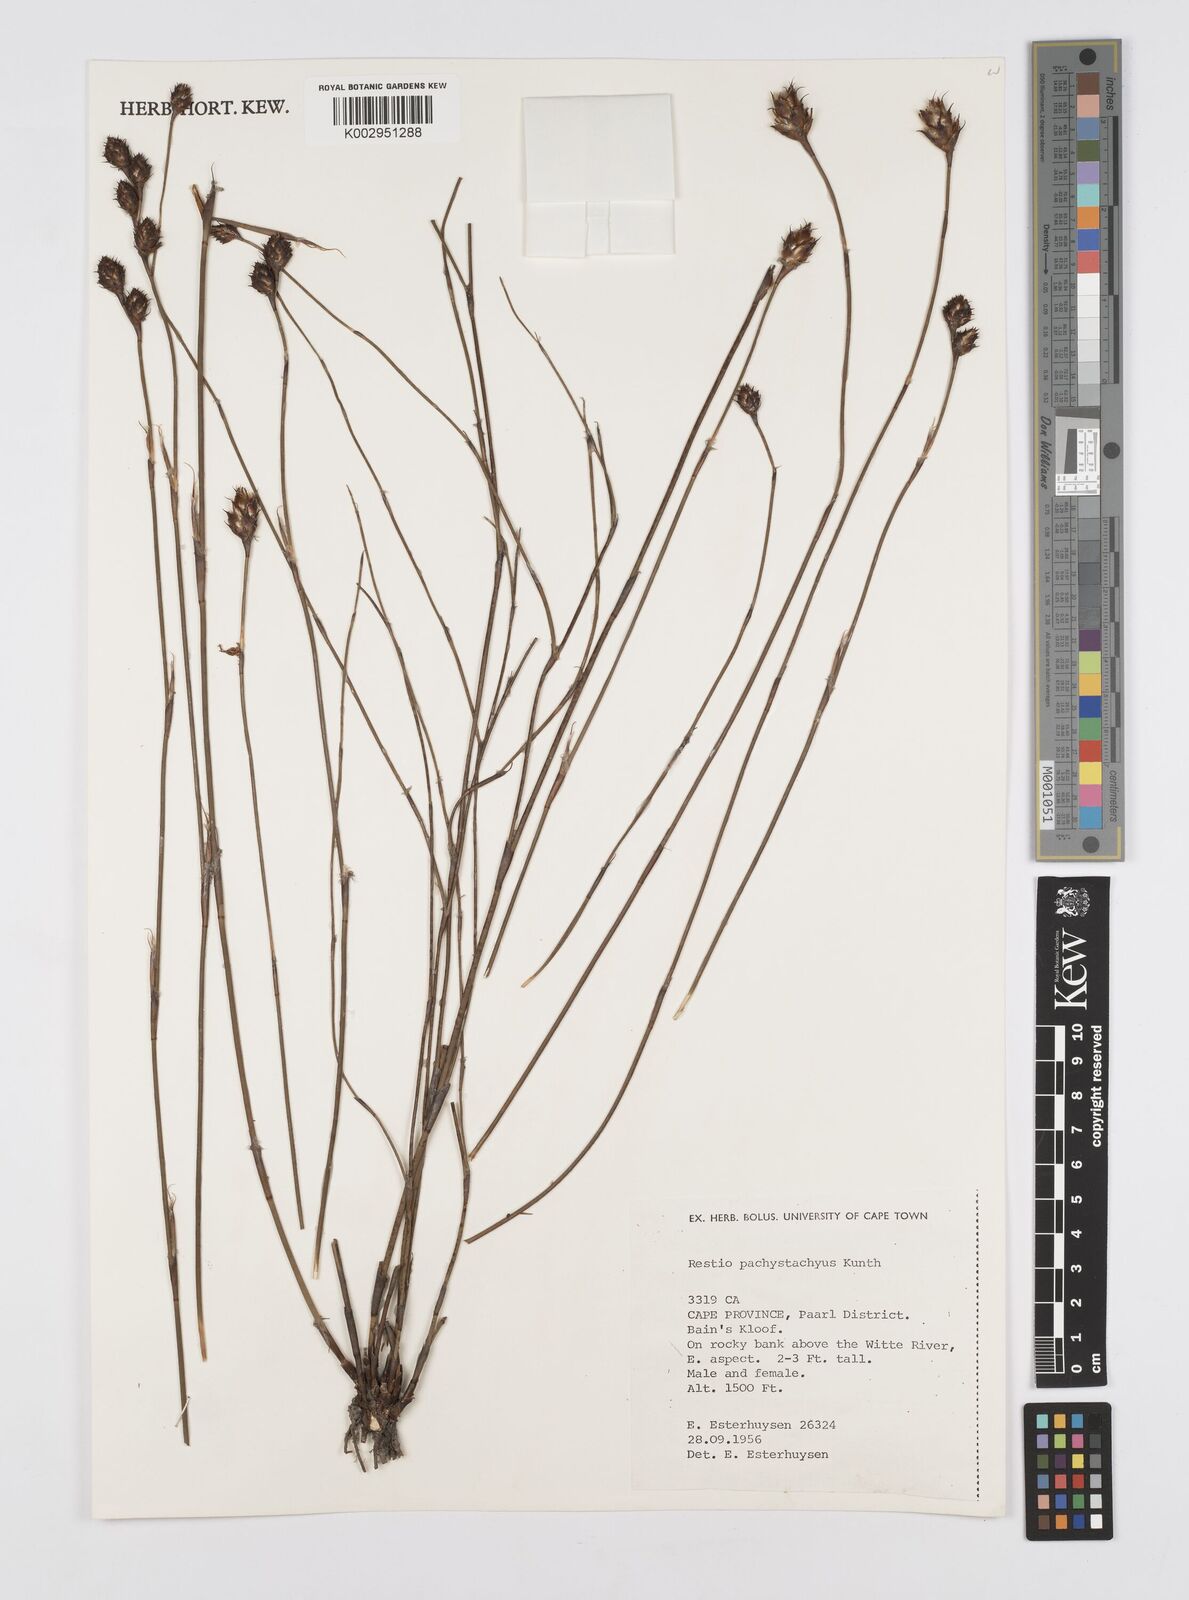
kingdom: Plantae
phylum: Tracheophyta
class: Liliopsida
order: Poales
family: Restionaceae
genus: Restio
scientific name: Restio pachystachyus
